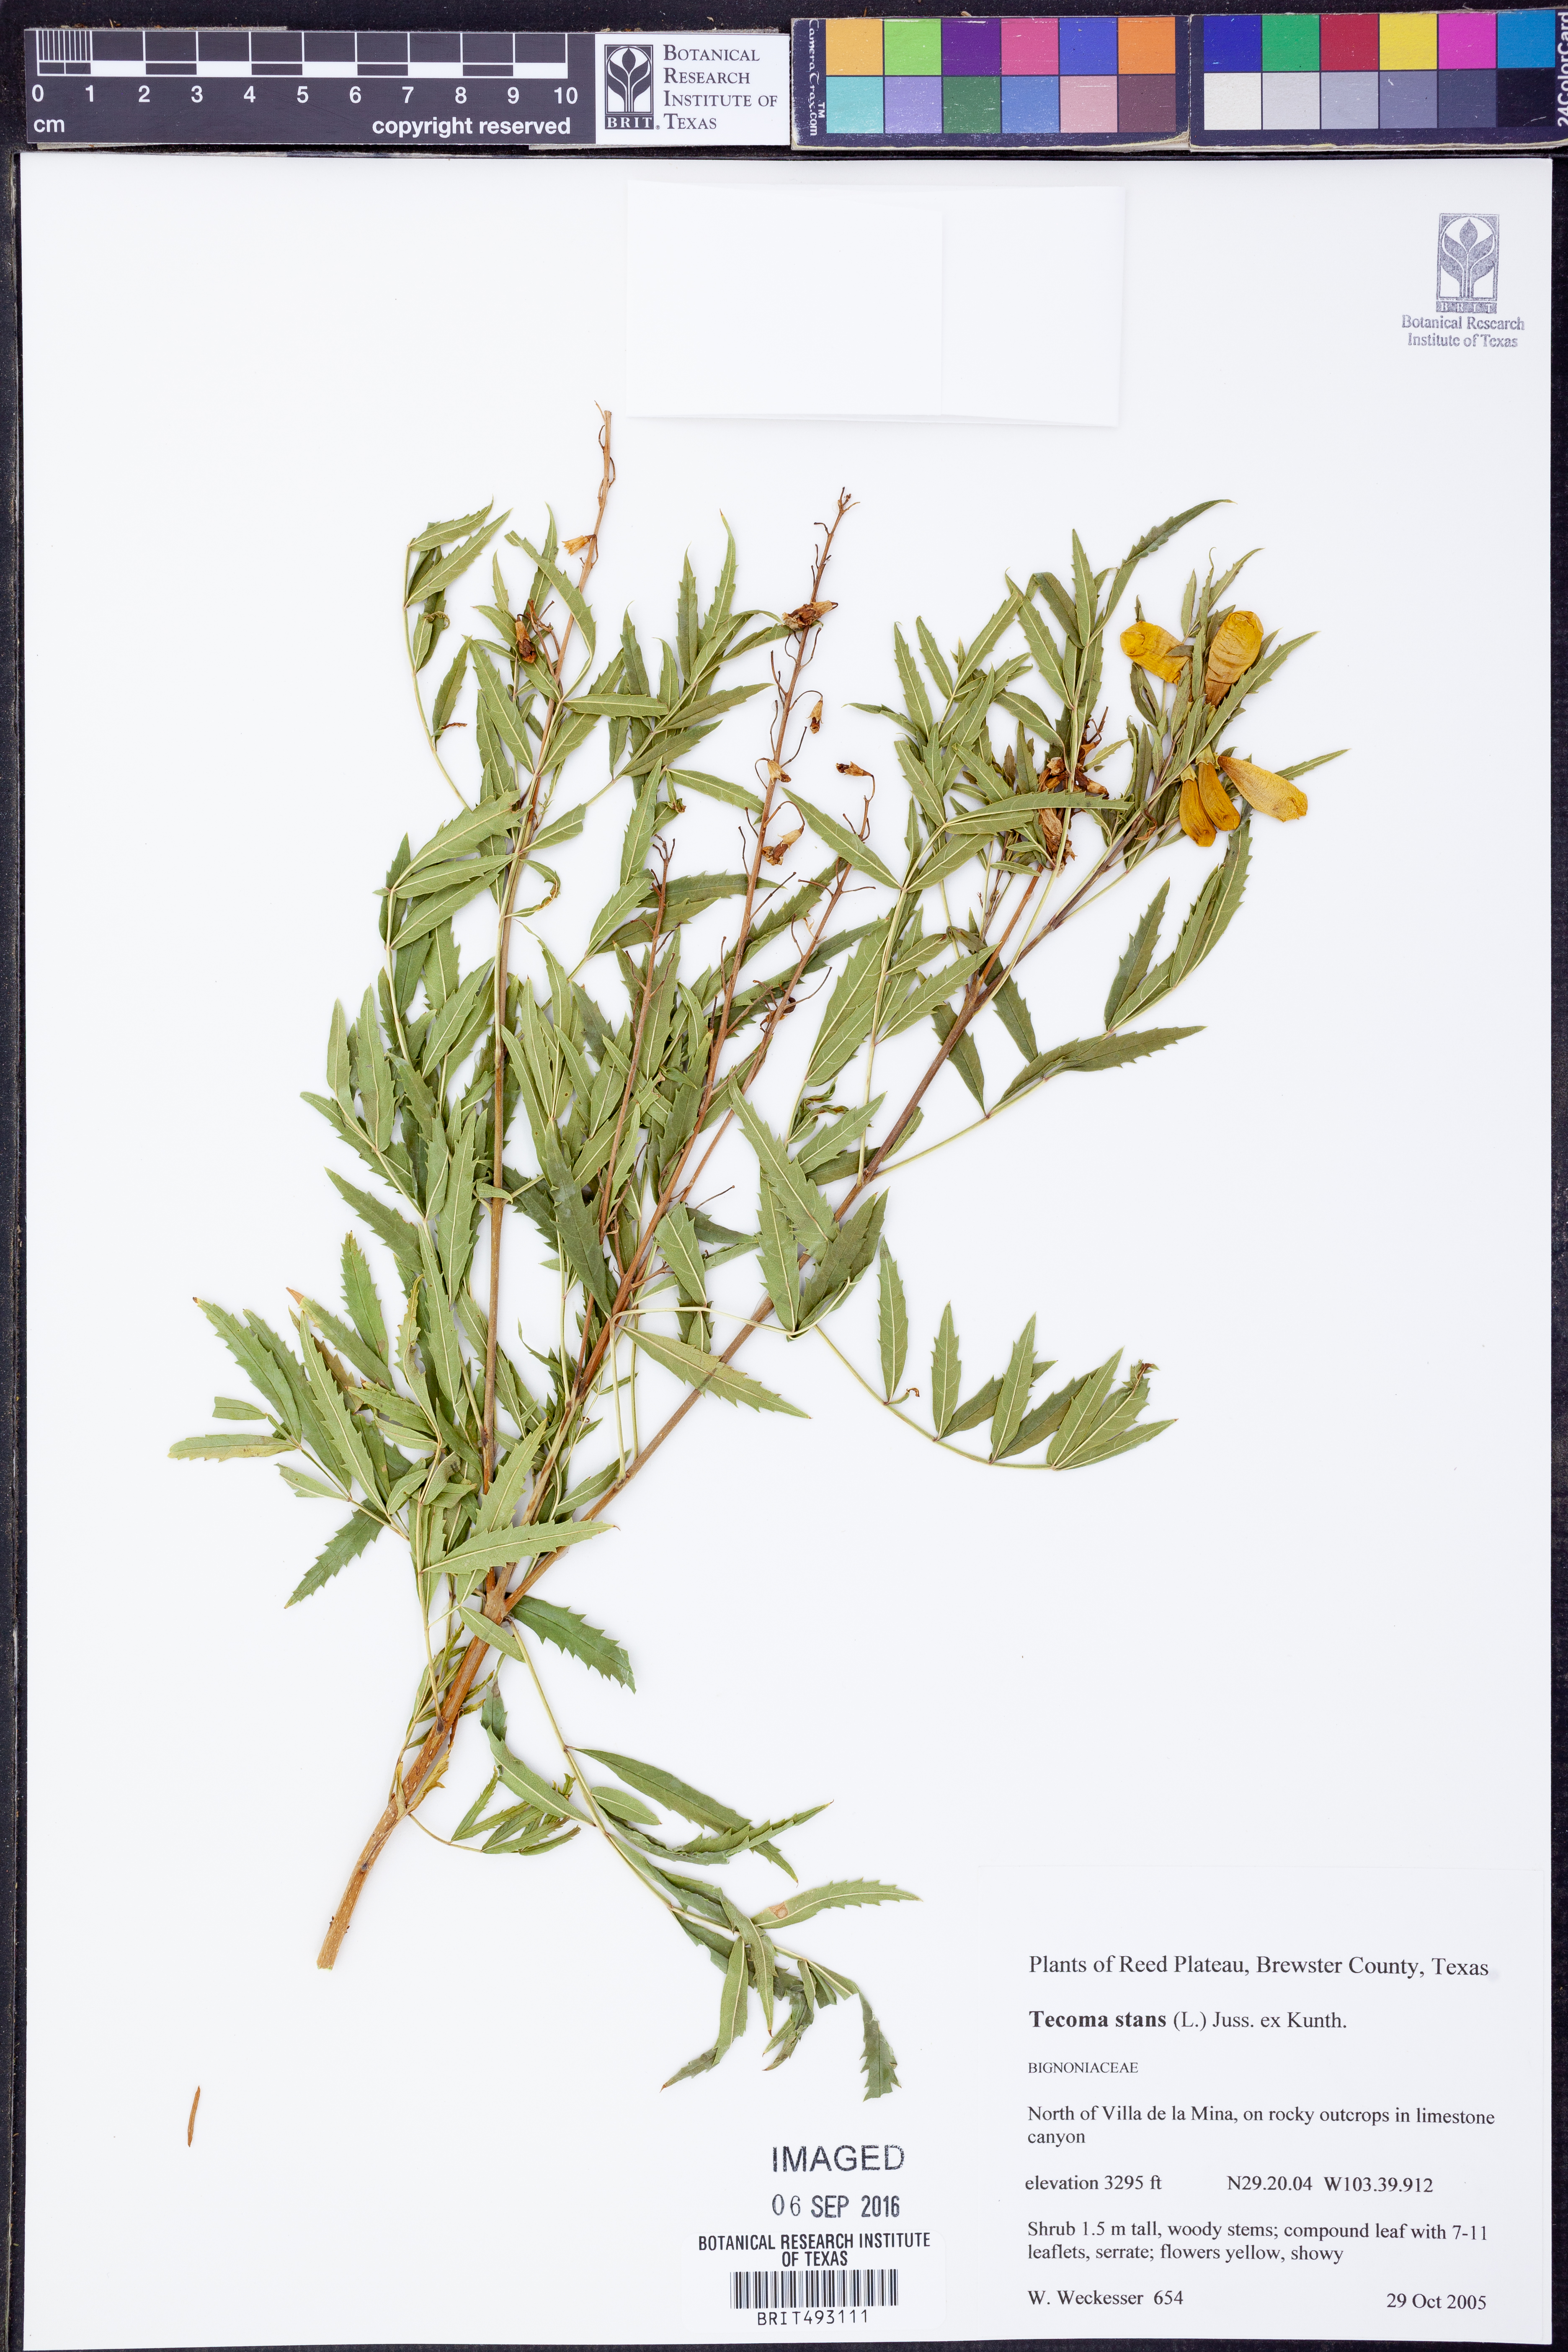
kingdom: Plantae
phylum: Tracheophyta
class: Magnoliopsida
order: Lamiales
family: Bignoniaceae
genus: Tecoma
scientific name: Tecoma stans
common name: Yellow trumpetbush
